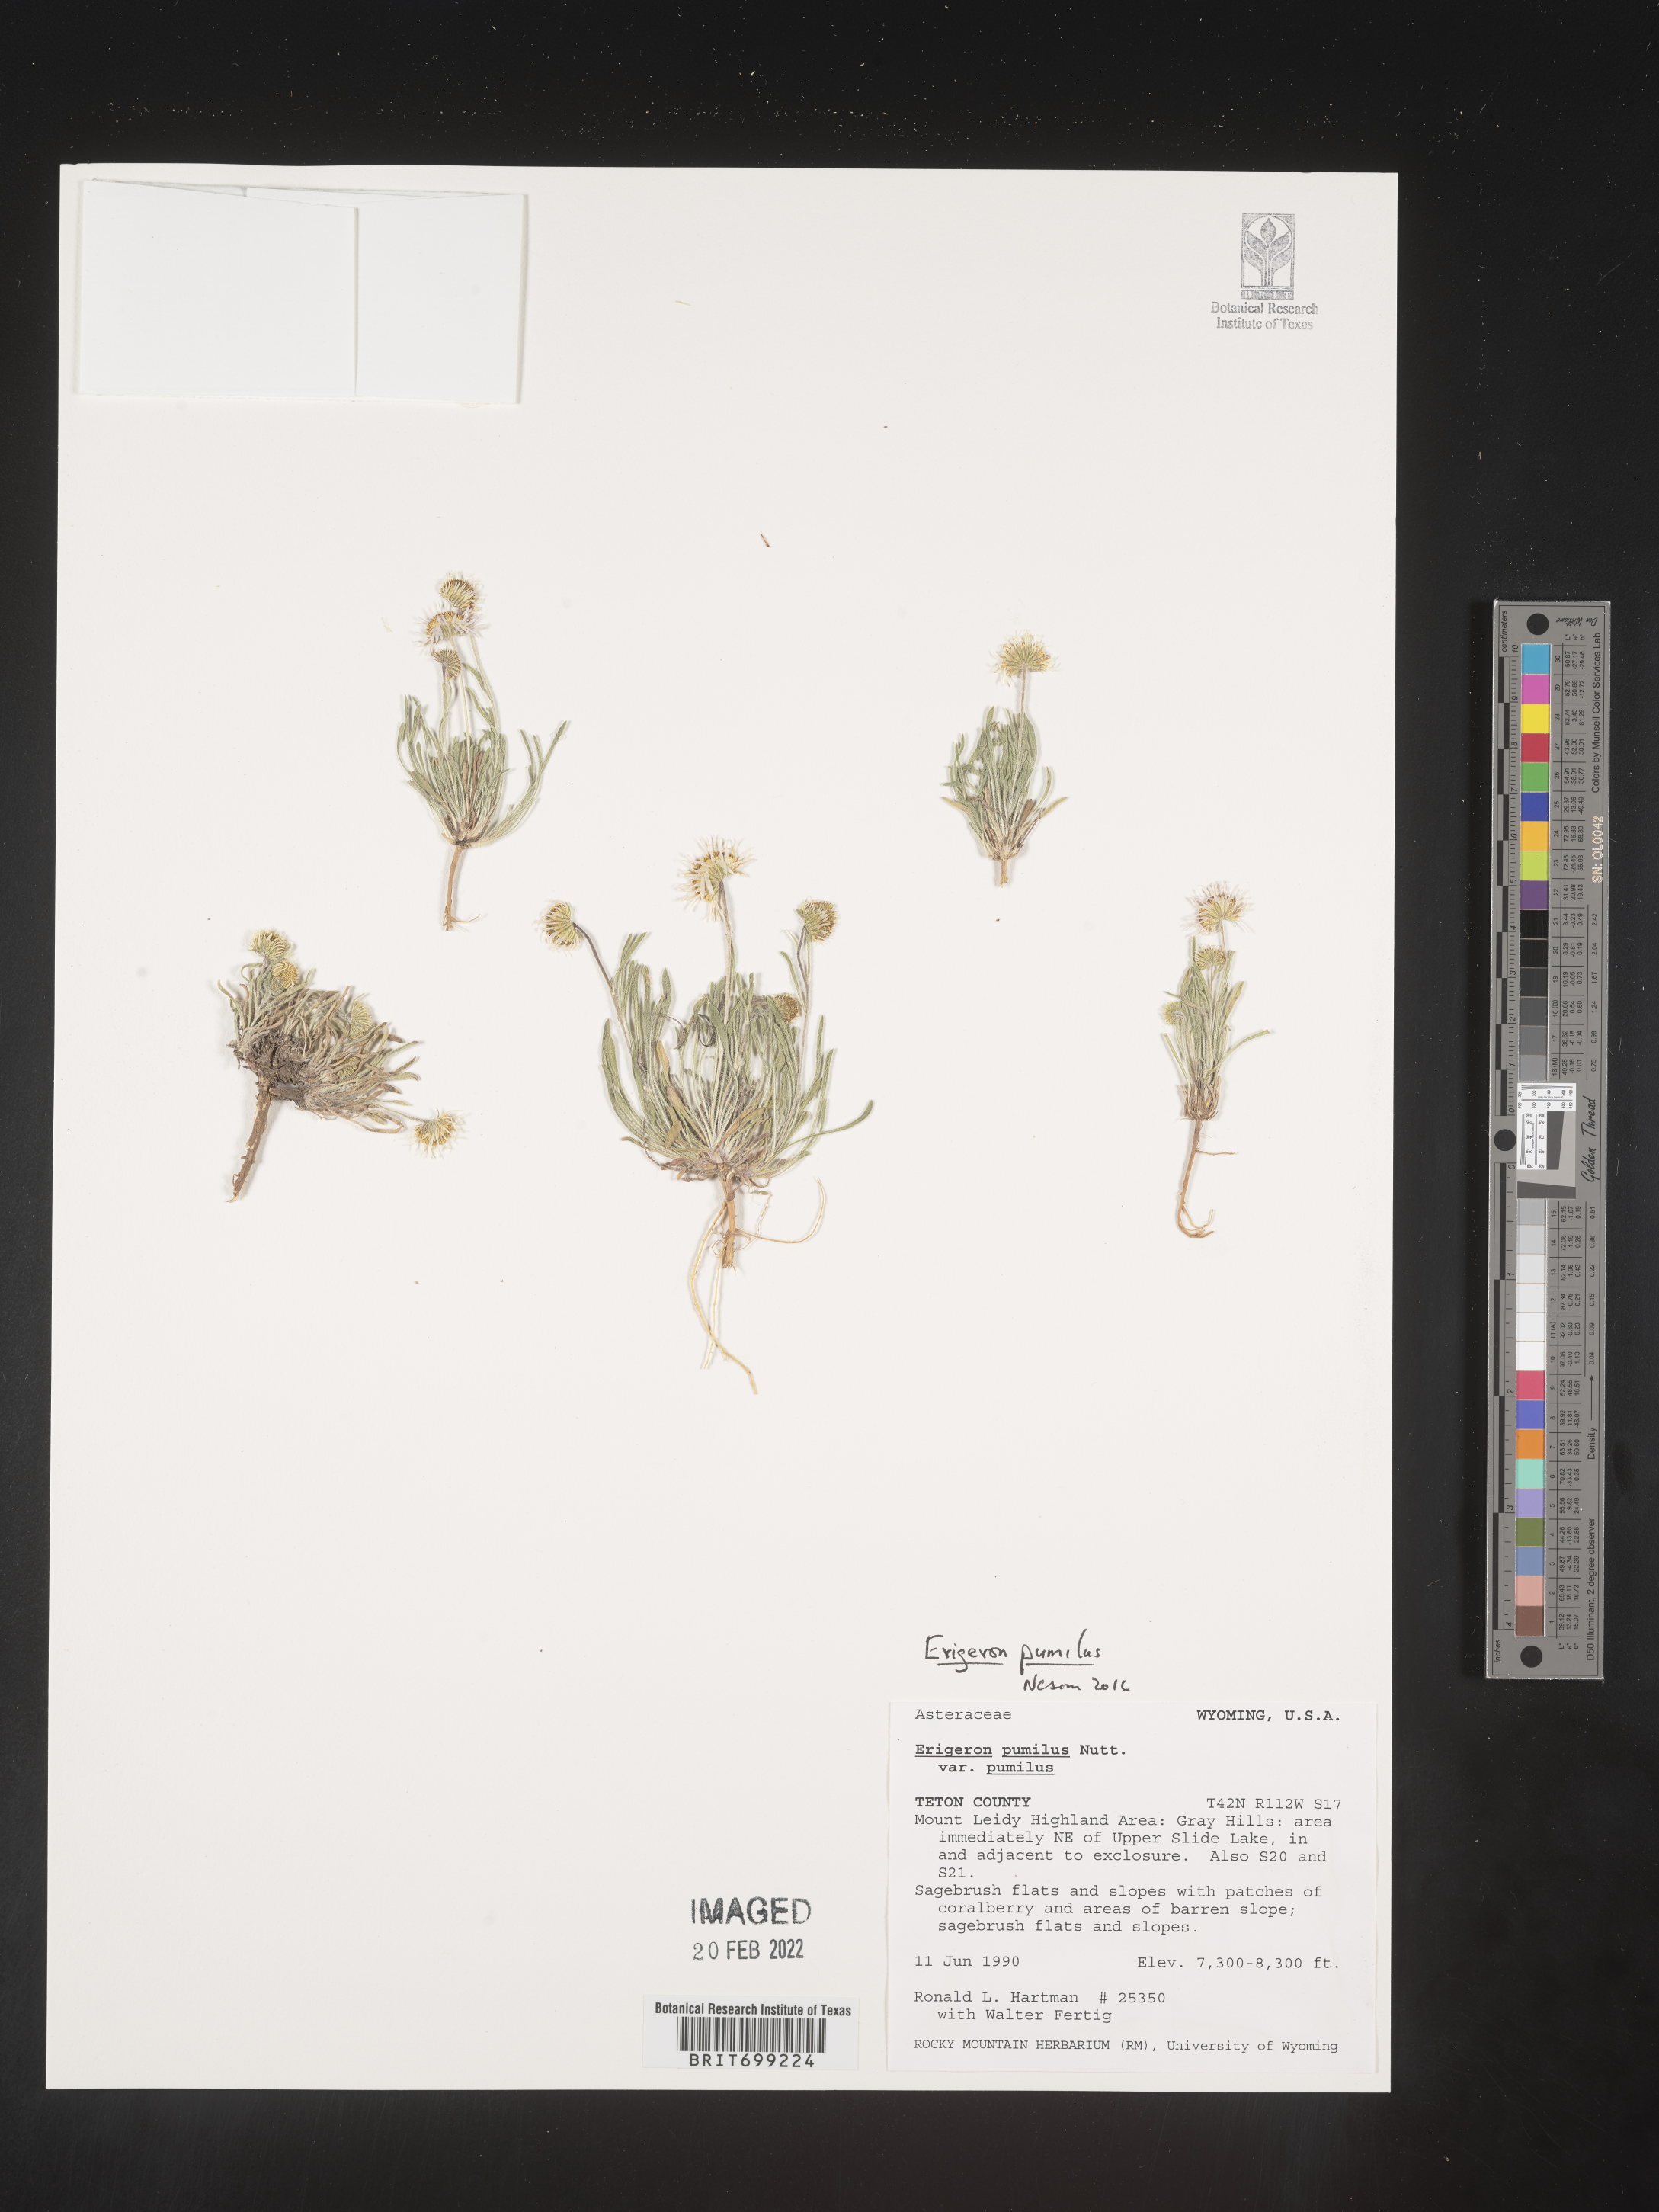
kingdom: Plantae
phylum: Tracheophyta
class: Magnoliopsida
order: Asterales
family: Asteraceae
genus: Erigeron
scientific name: Erigeron pumilus
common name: Shaggy fleabane
